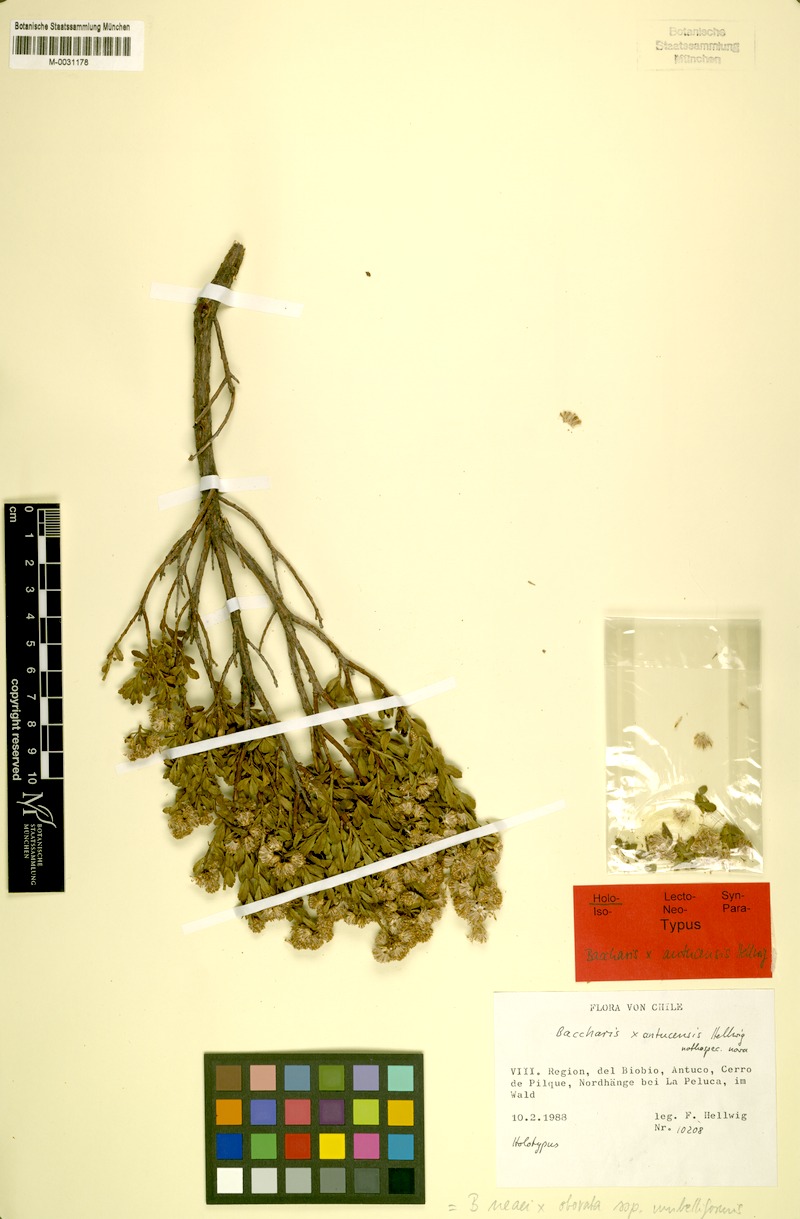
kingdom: Plantae
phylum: Tracheophyta
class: Magnoliopsida
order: Asterales
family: Asteraceae
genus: Baccharis
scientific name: Baccharis antucensis
